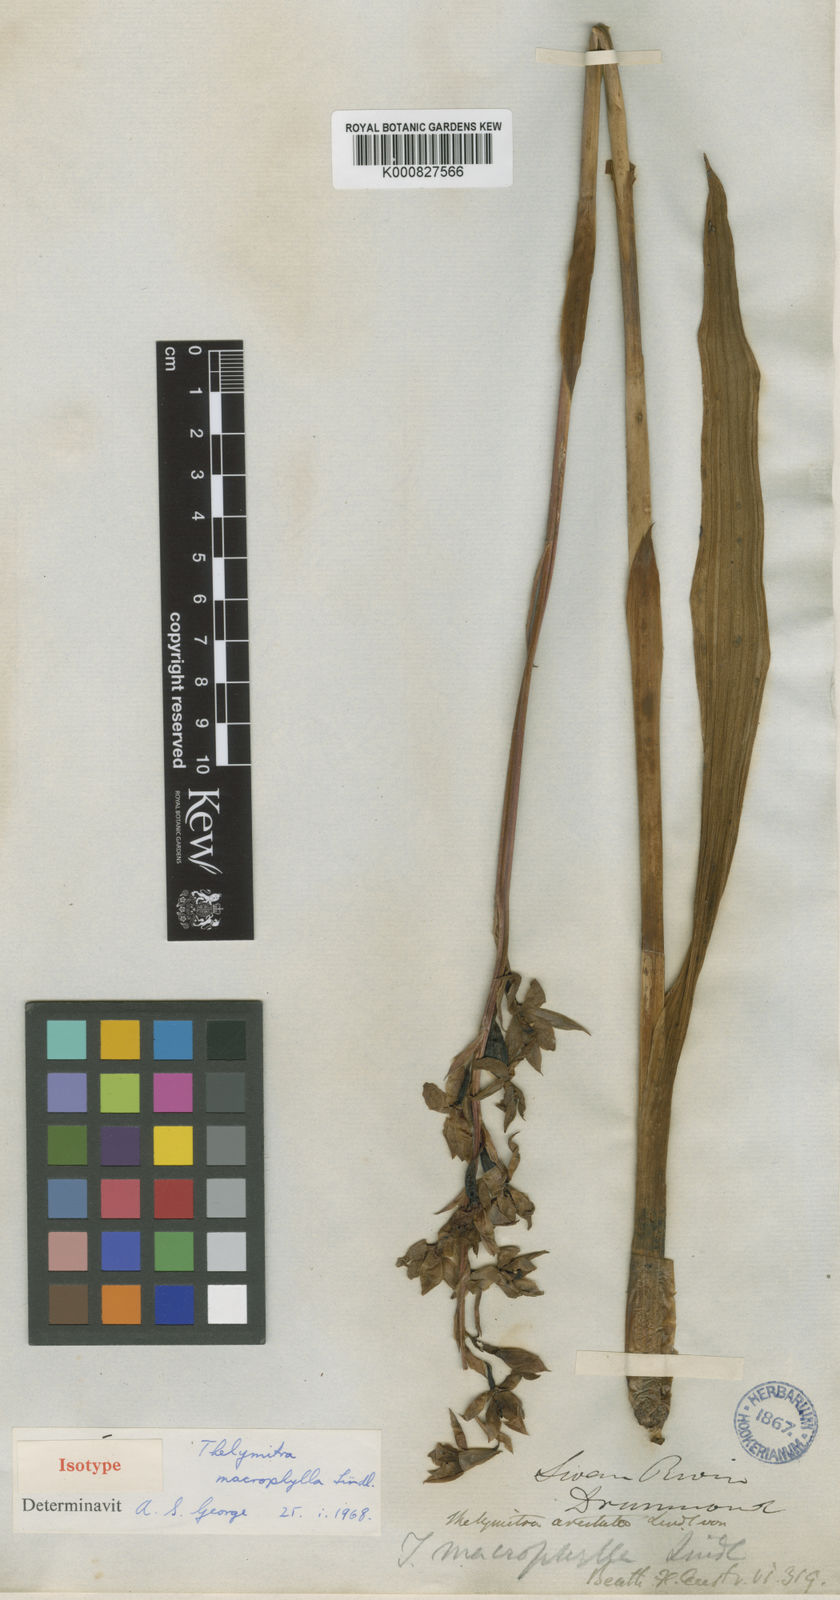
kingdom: Plantae
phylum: Tracheophyta
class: Liliopsida
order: Asparagales
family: Orchidaceae
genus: Thelymitra
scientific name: Thelymitra nuda
